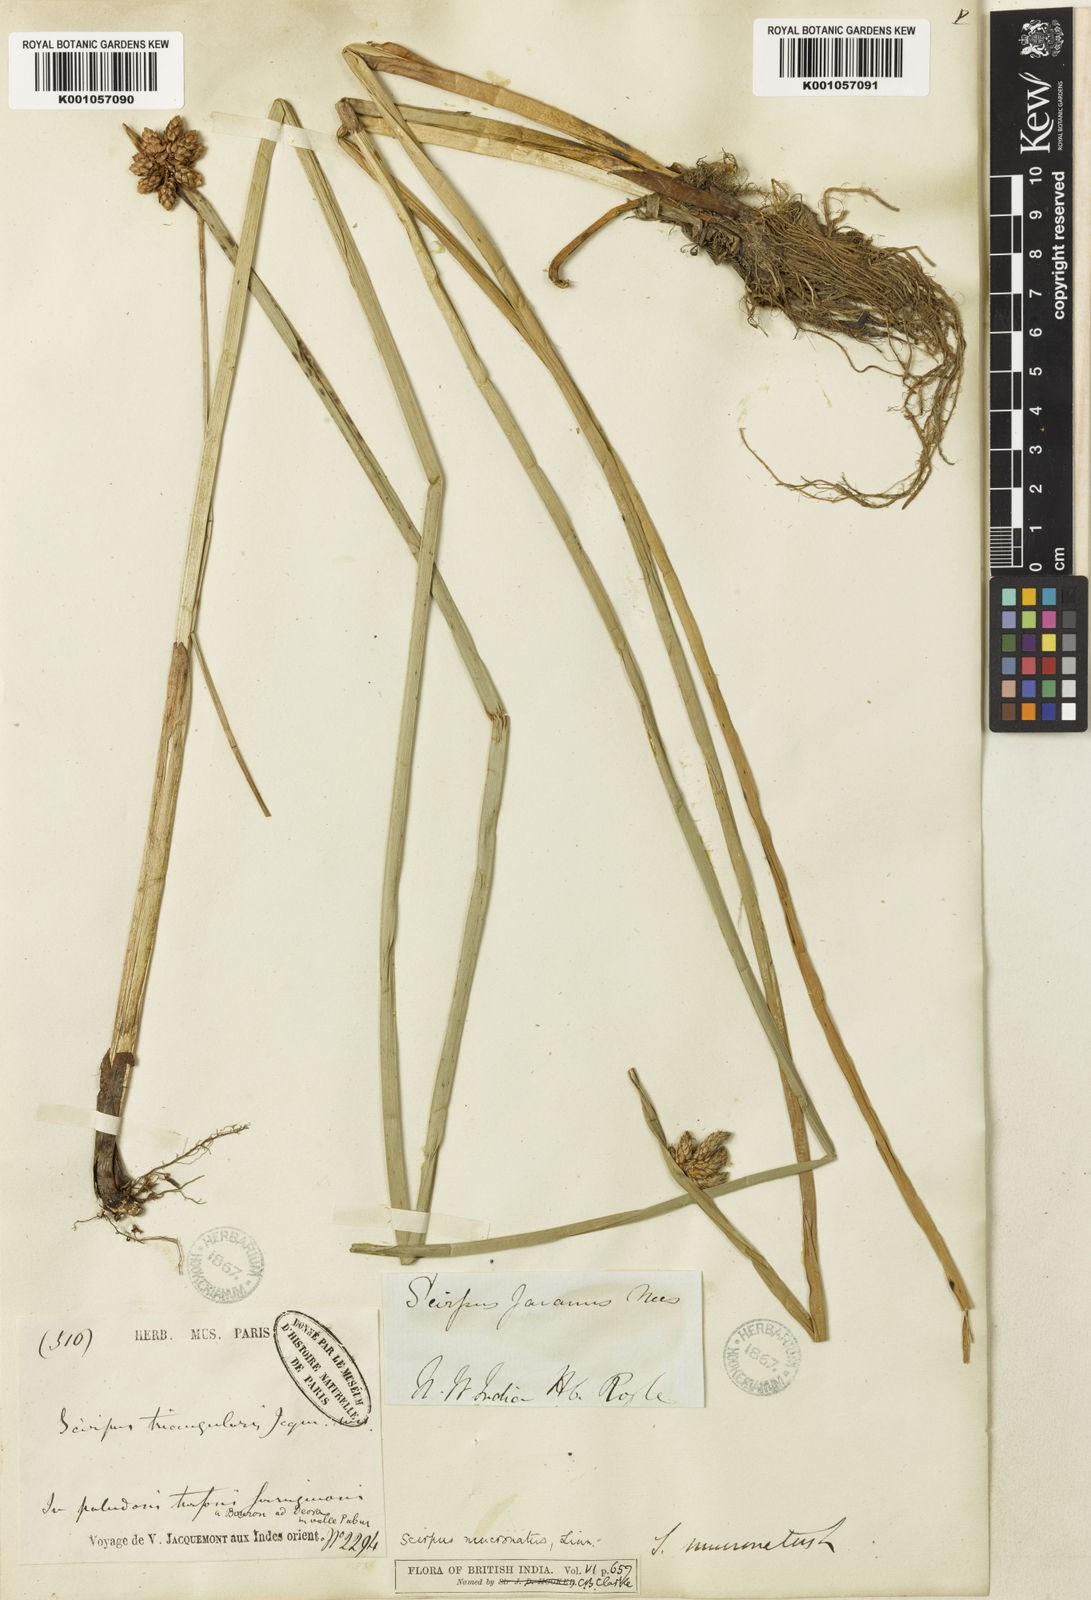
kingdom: Plantae
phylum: Tracheophyta
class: Liliopsida
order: Poales
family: Cyperaceae
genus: Schoenoplectiella
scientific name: Schoenoplectiella mucronata
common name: Bog bulrush
